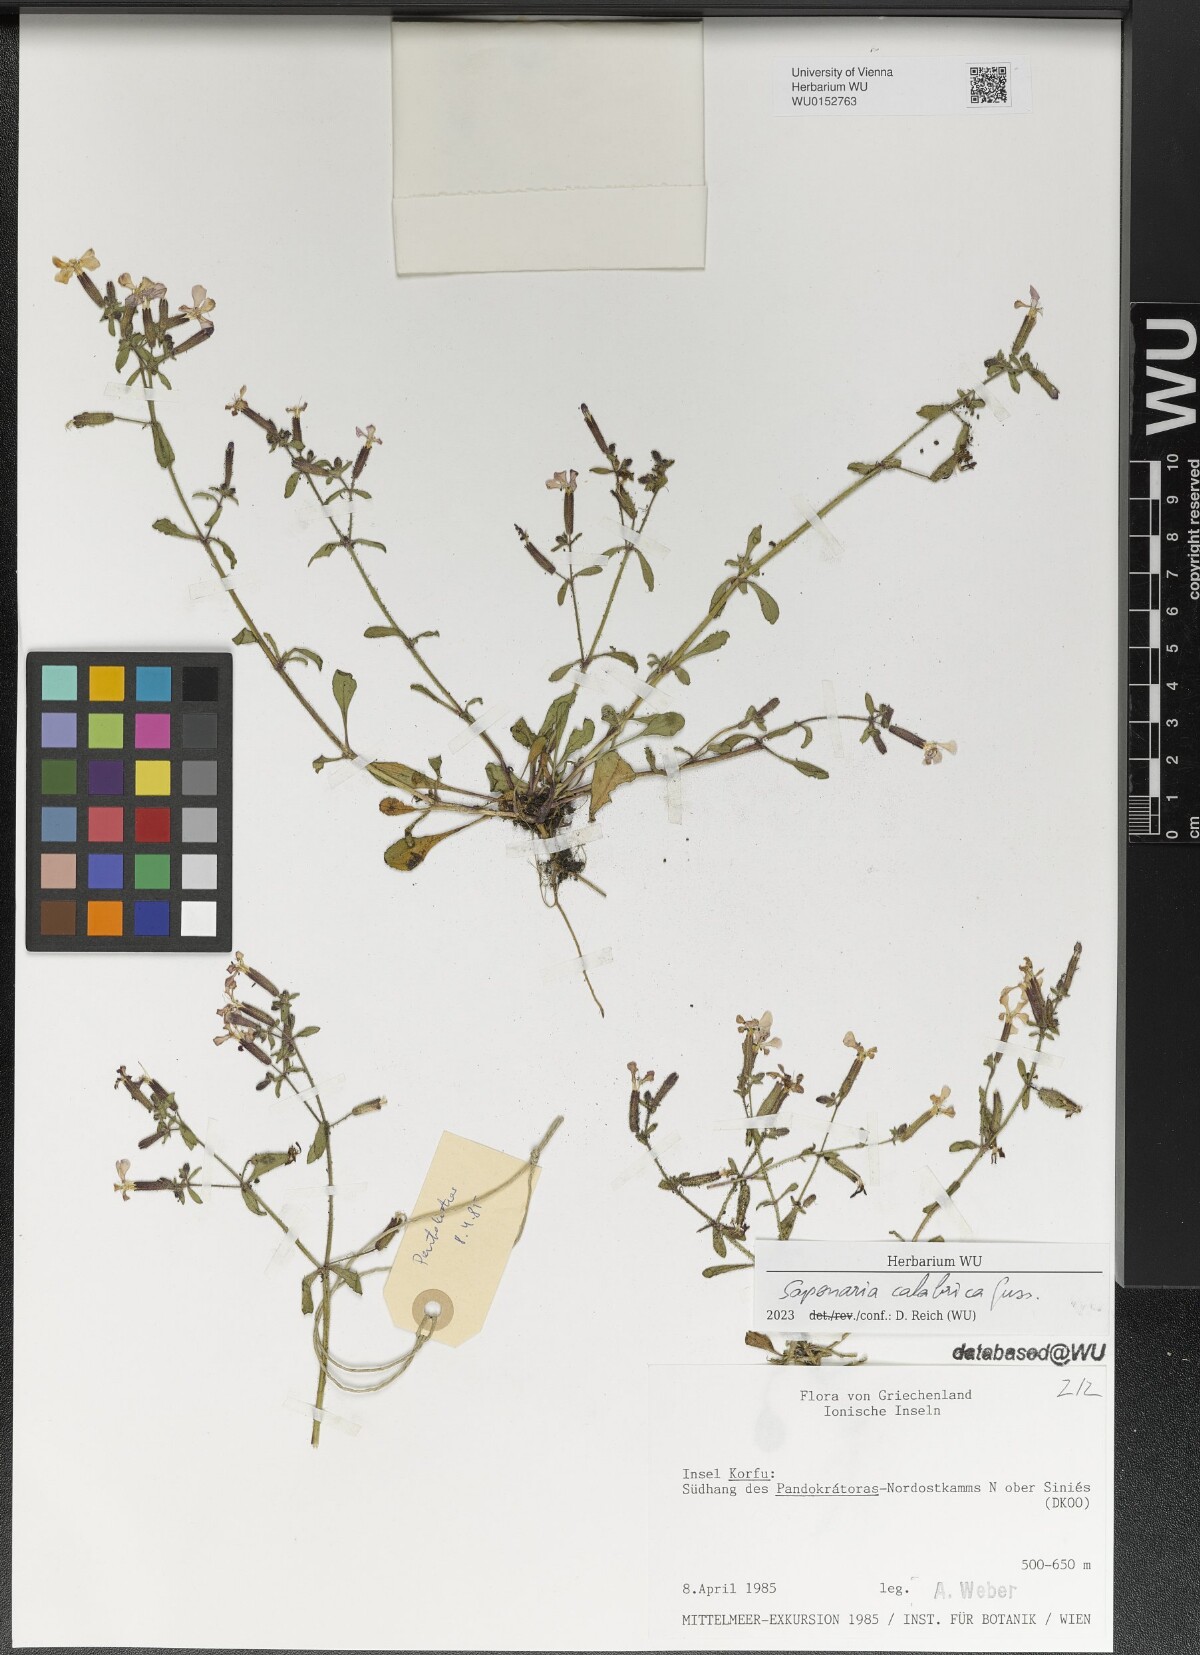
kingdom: Plantae
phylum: Tracheophyta
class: Magnoliopsida
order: Caryophyllales
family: Caryophyllaceae
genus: Saponaria
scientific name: Saponaria calabrica
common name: Adriatic soapwort
